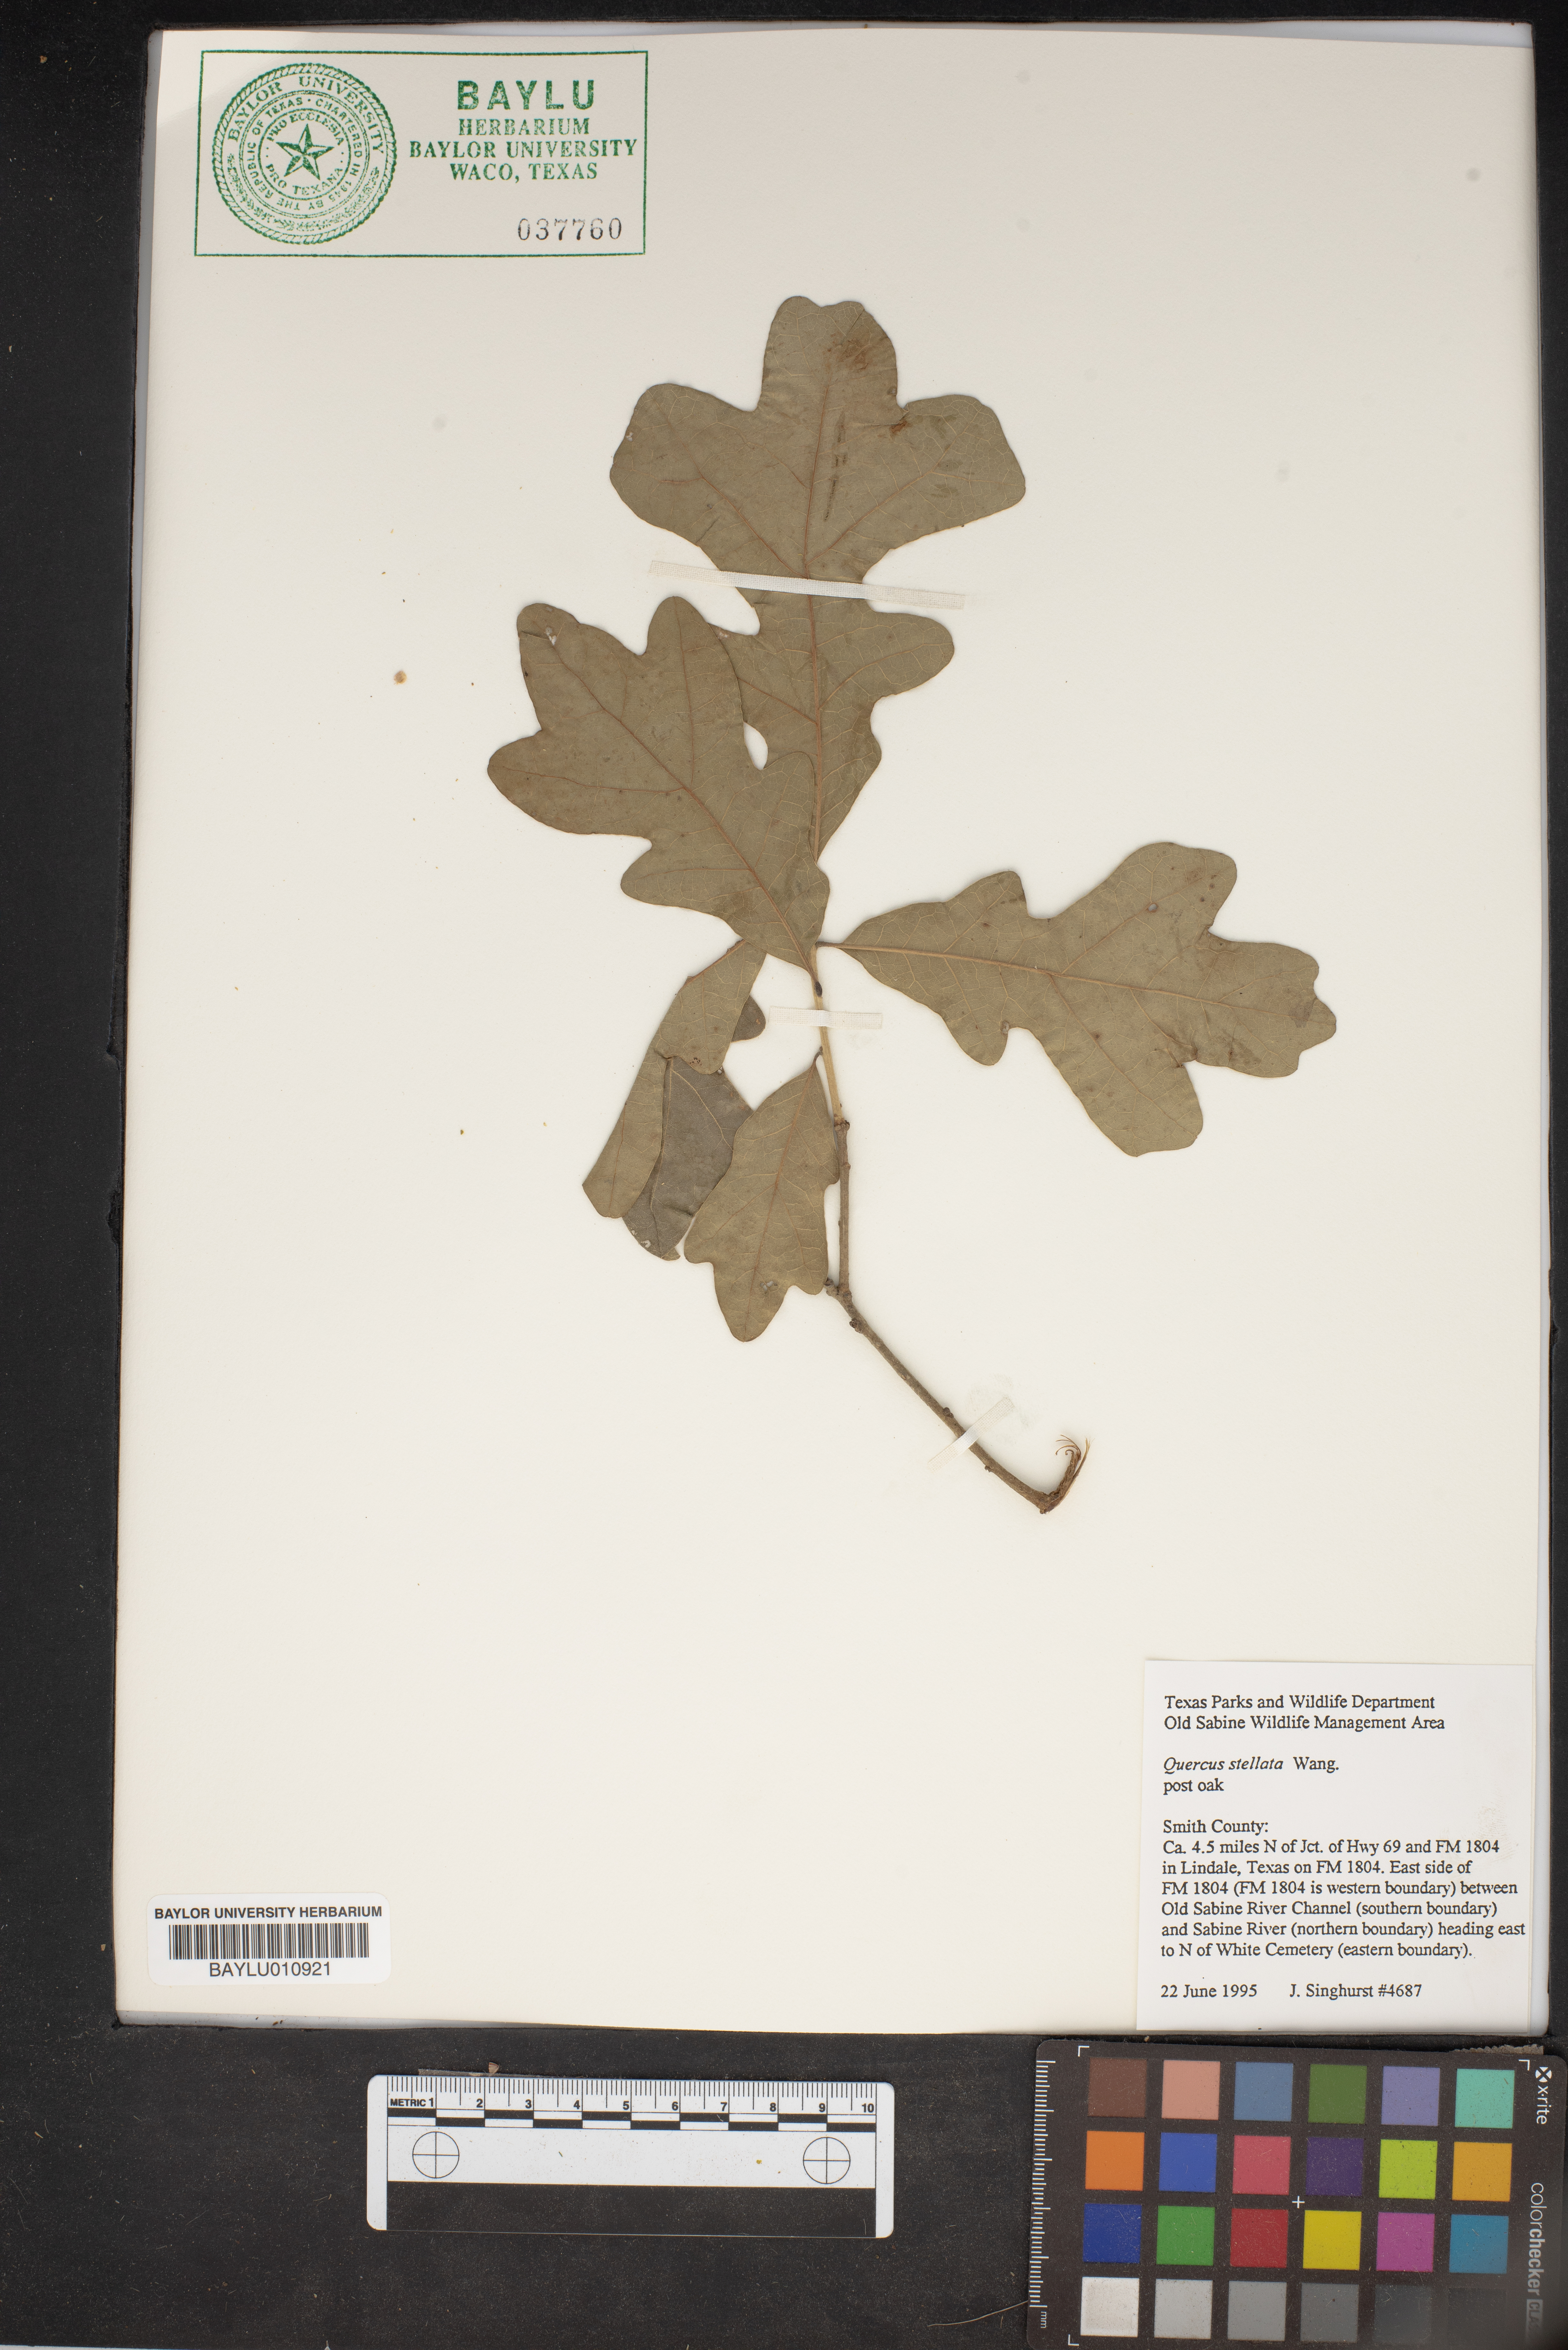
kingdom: Plantae
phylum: Tracheophyta
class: Magnoliopsida
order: Fagales
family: Fagaceae
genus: Quercus
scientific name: Quercus stellata
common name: Post oak
